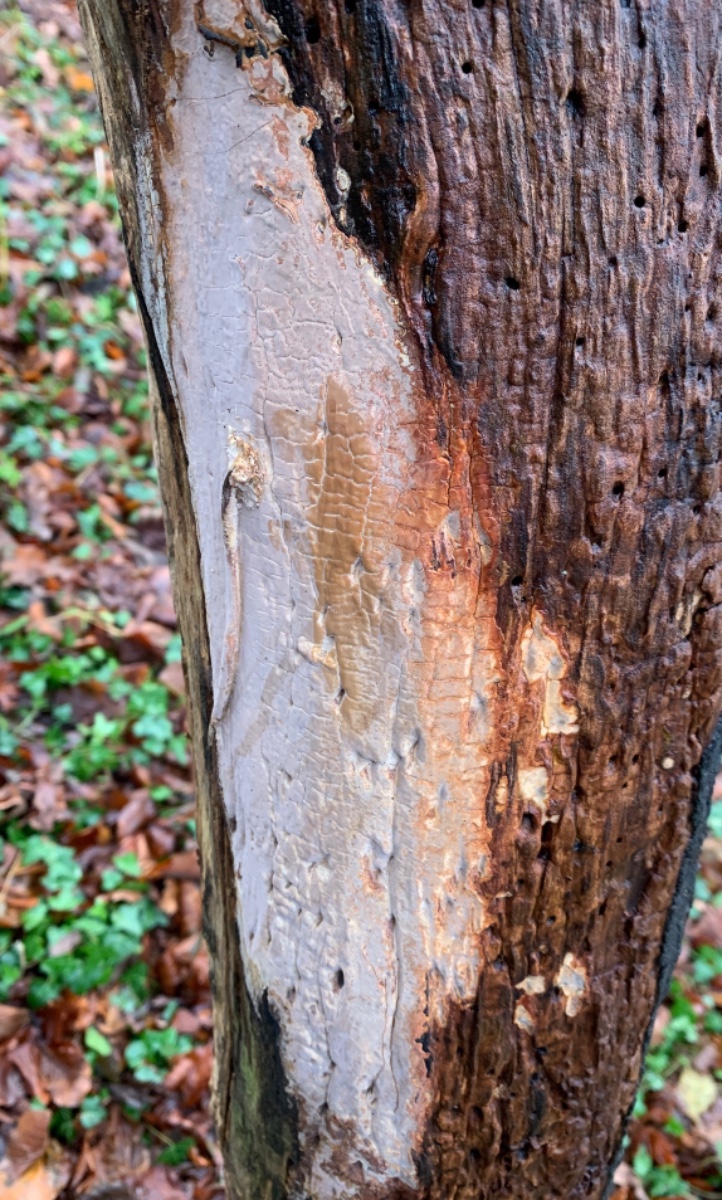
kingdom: Fungi
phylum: Basidiomycota
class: Agaricomycetes
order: Russulales
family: Peniophoraceae
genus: Scytinostroma
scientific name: Scytinostroma hemidichophyticum
